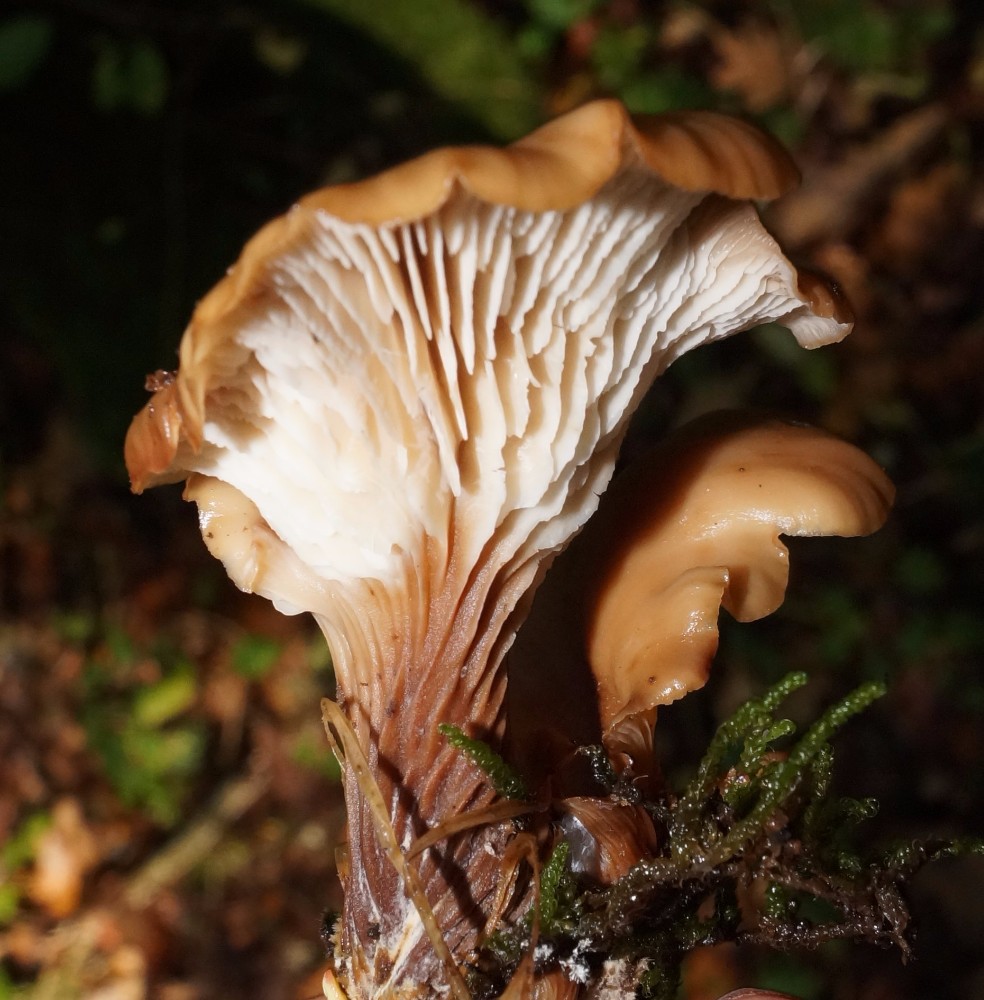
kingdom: Fungi
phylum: Basidiomycota
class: Agaricomycetes
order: Russulales
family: Auriscalpiaceae
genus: Lentinellus
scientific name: Lentinellus cochleatus
